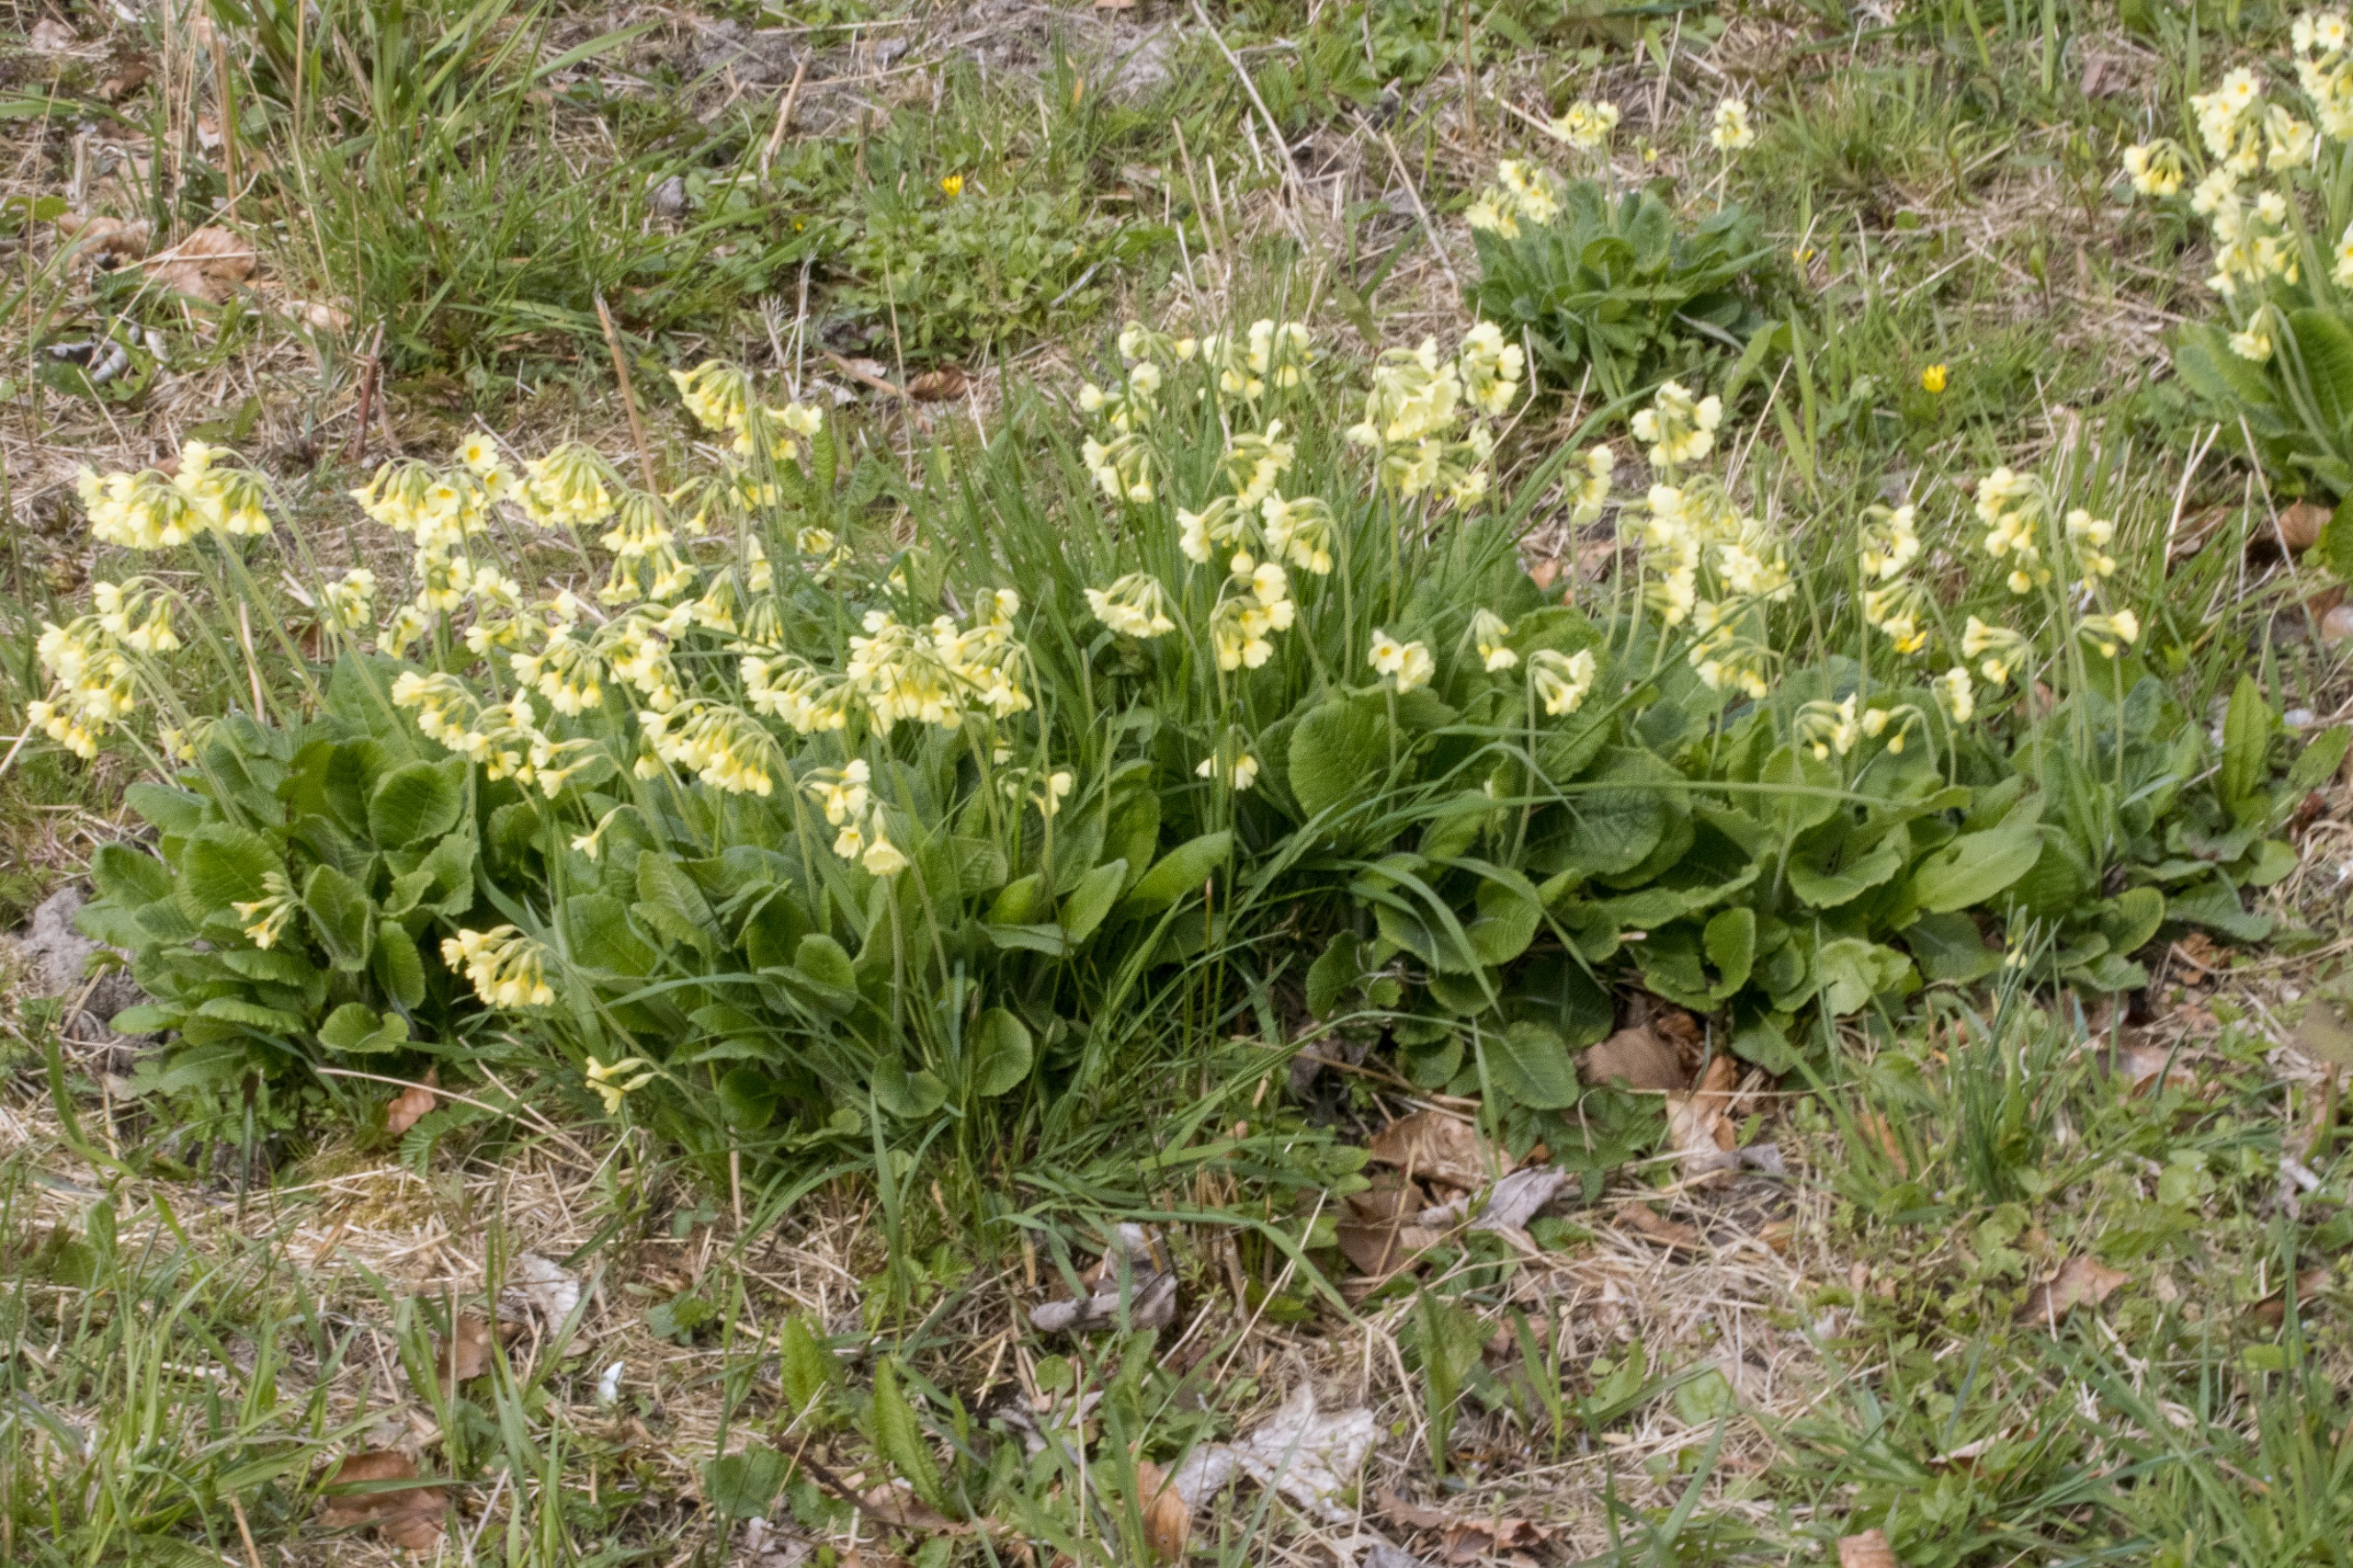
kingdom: Plantae
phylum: Tracheophyta
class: Magnoliopsida
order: Ericales
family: Primulaceae
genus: Primula
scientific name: Primula elatior
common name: Fladkravet kodriver
